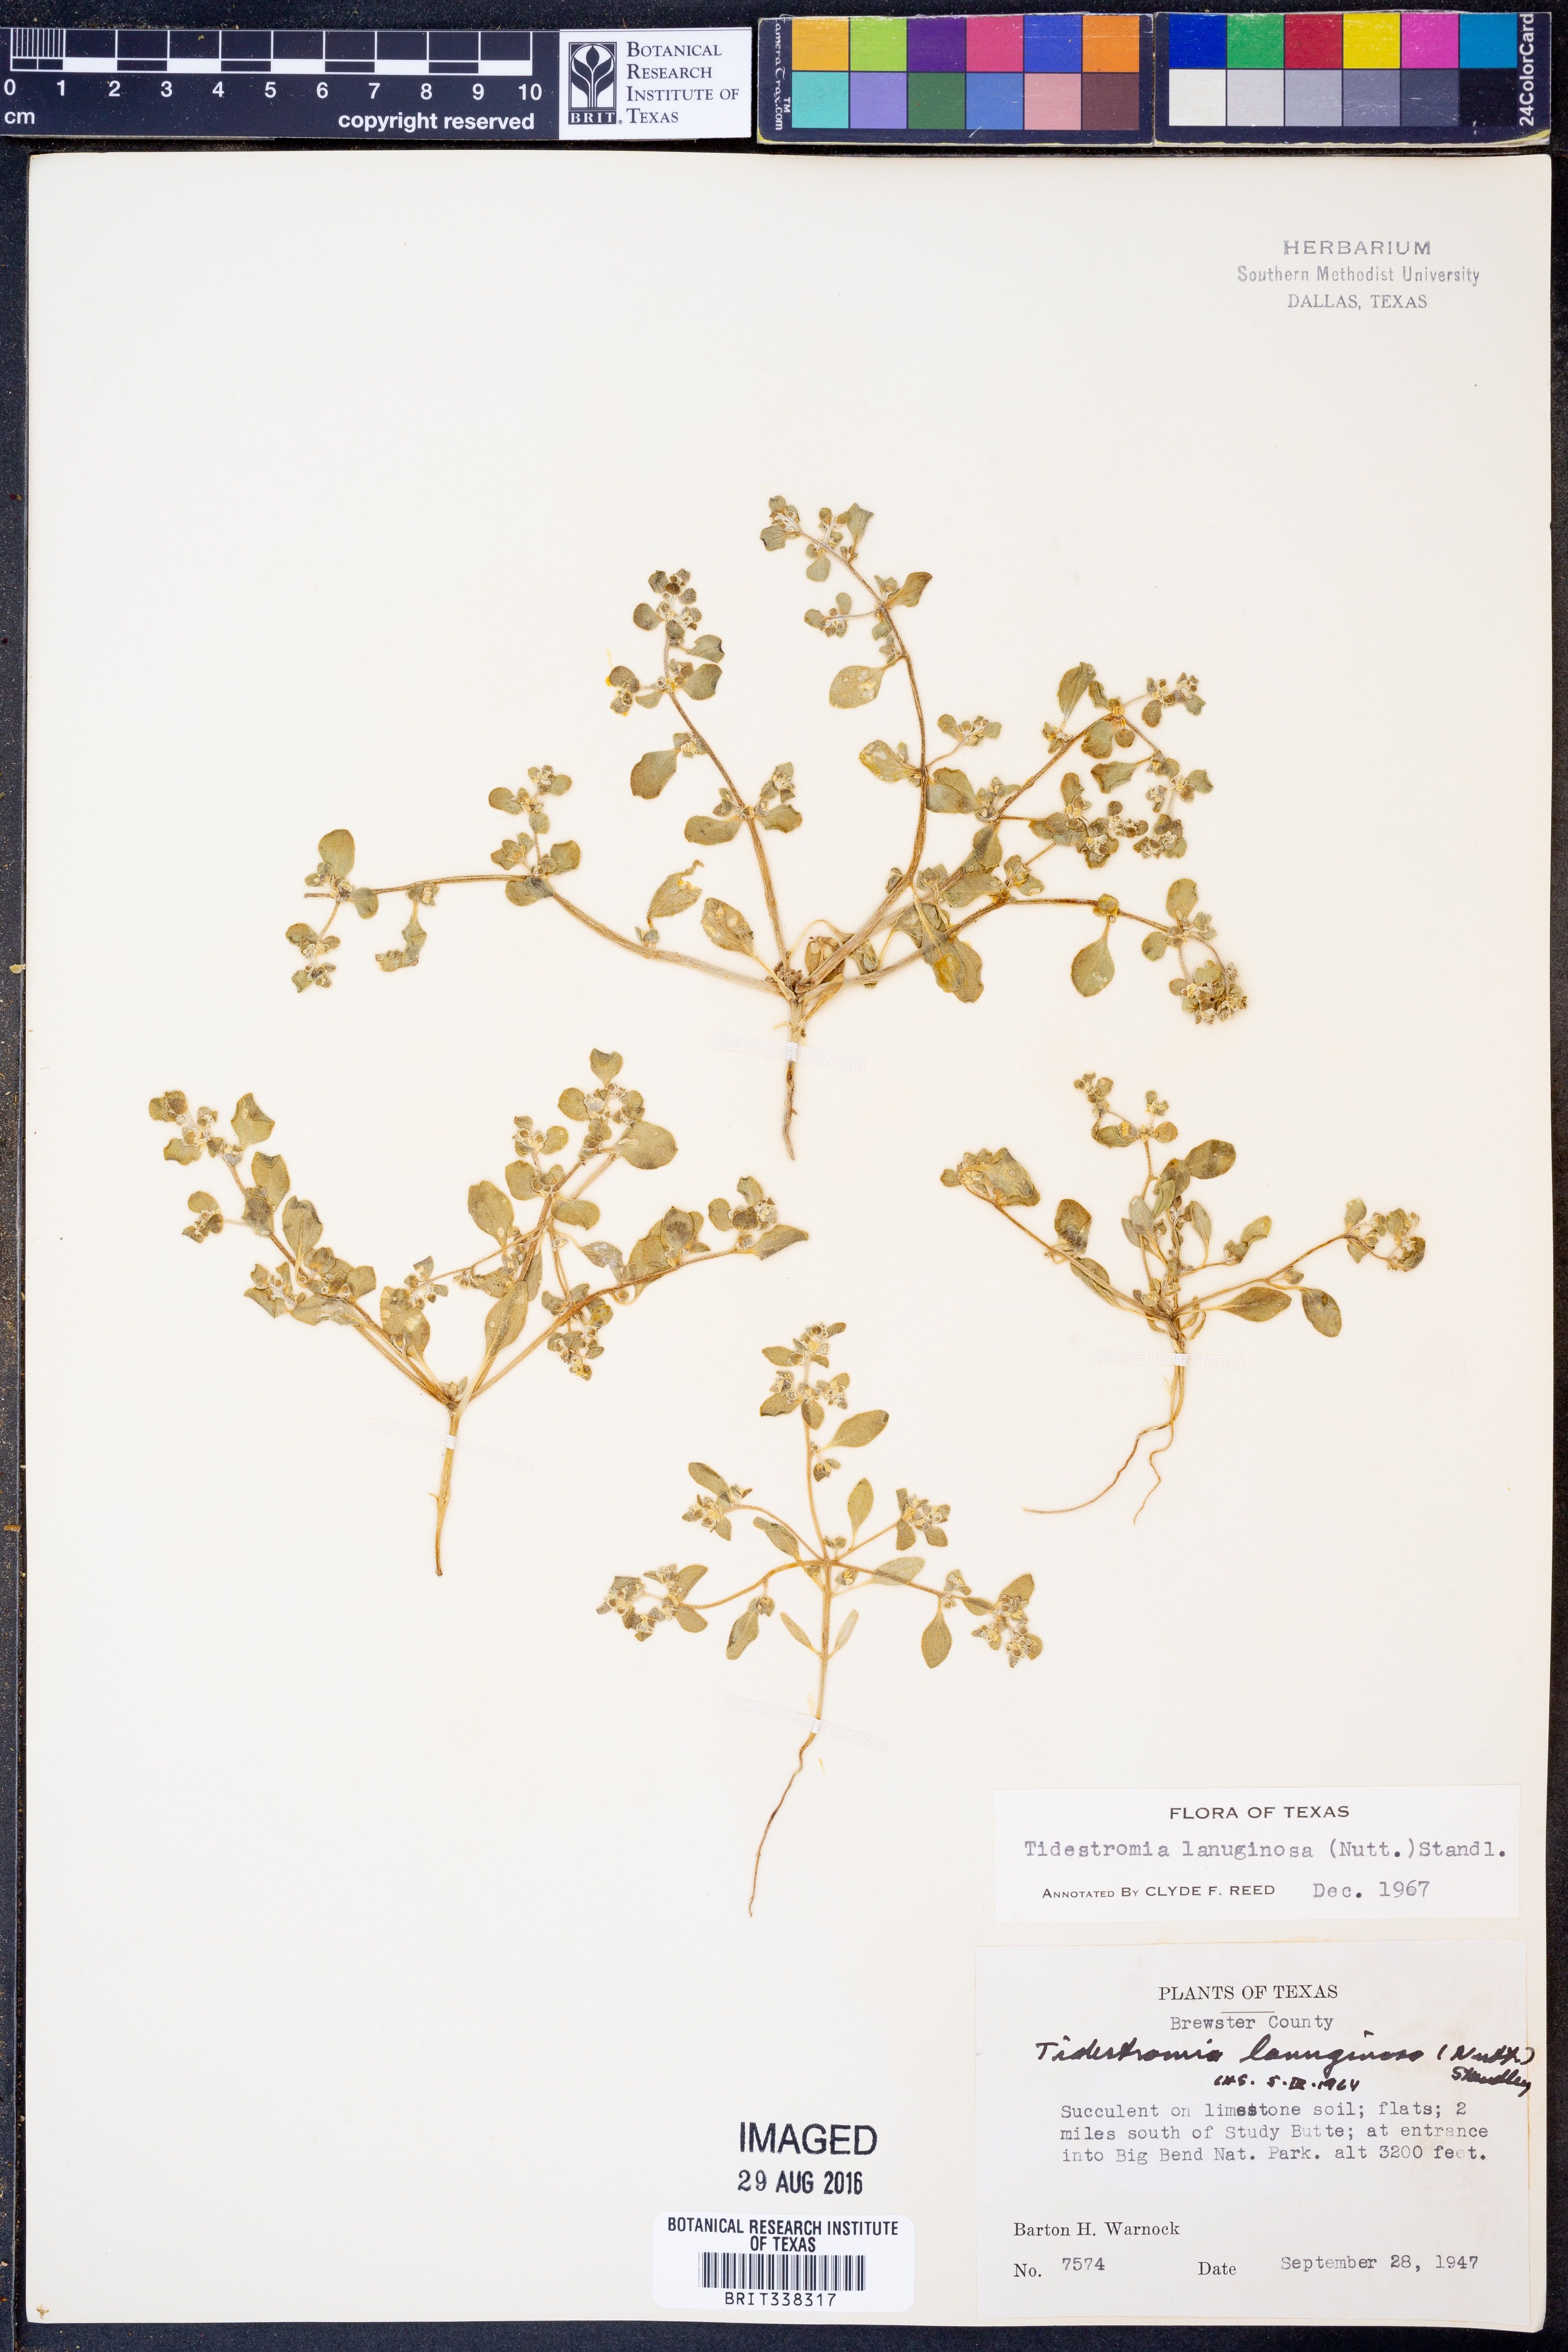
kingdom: Plantae
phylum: Tracheophyta
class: Magnoliopsida
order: Caryophyllales
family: Amaranthaceae
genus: Tidestromia
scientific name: Tidestromia lanuginosa
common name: Woolly tidestromia
